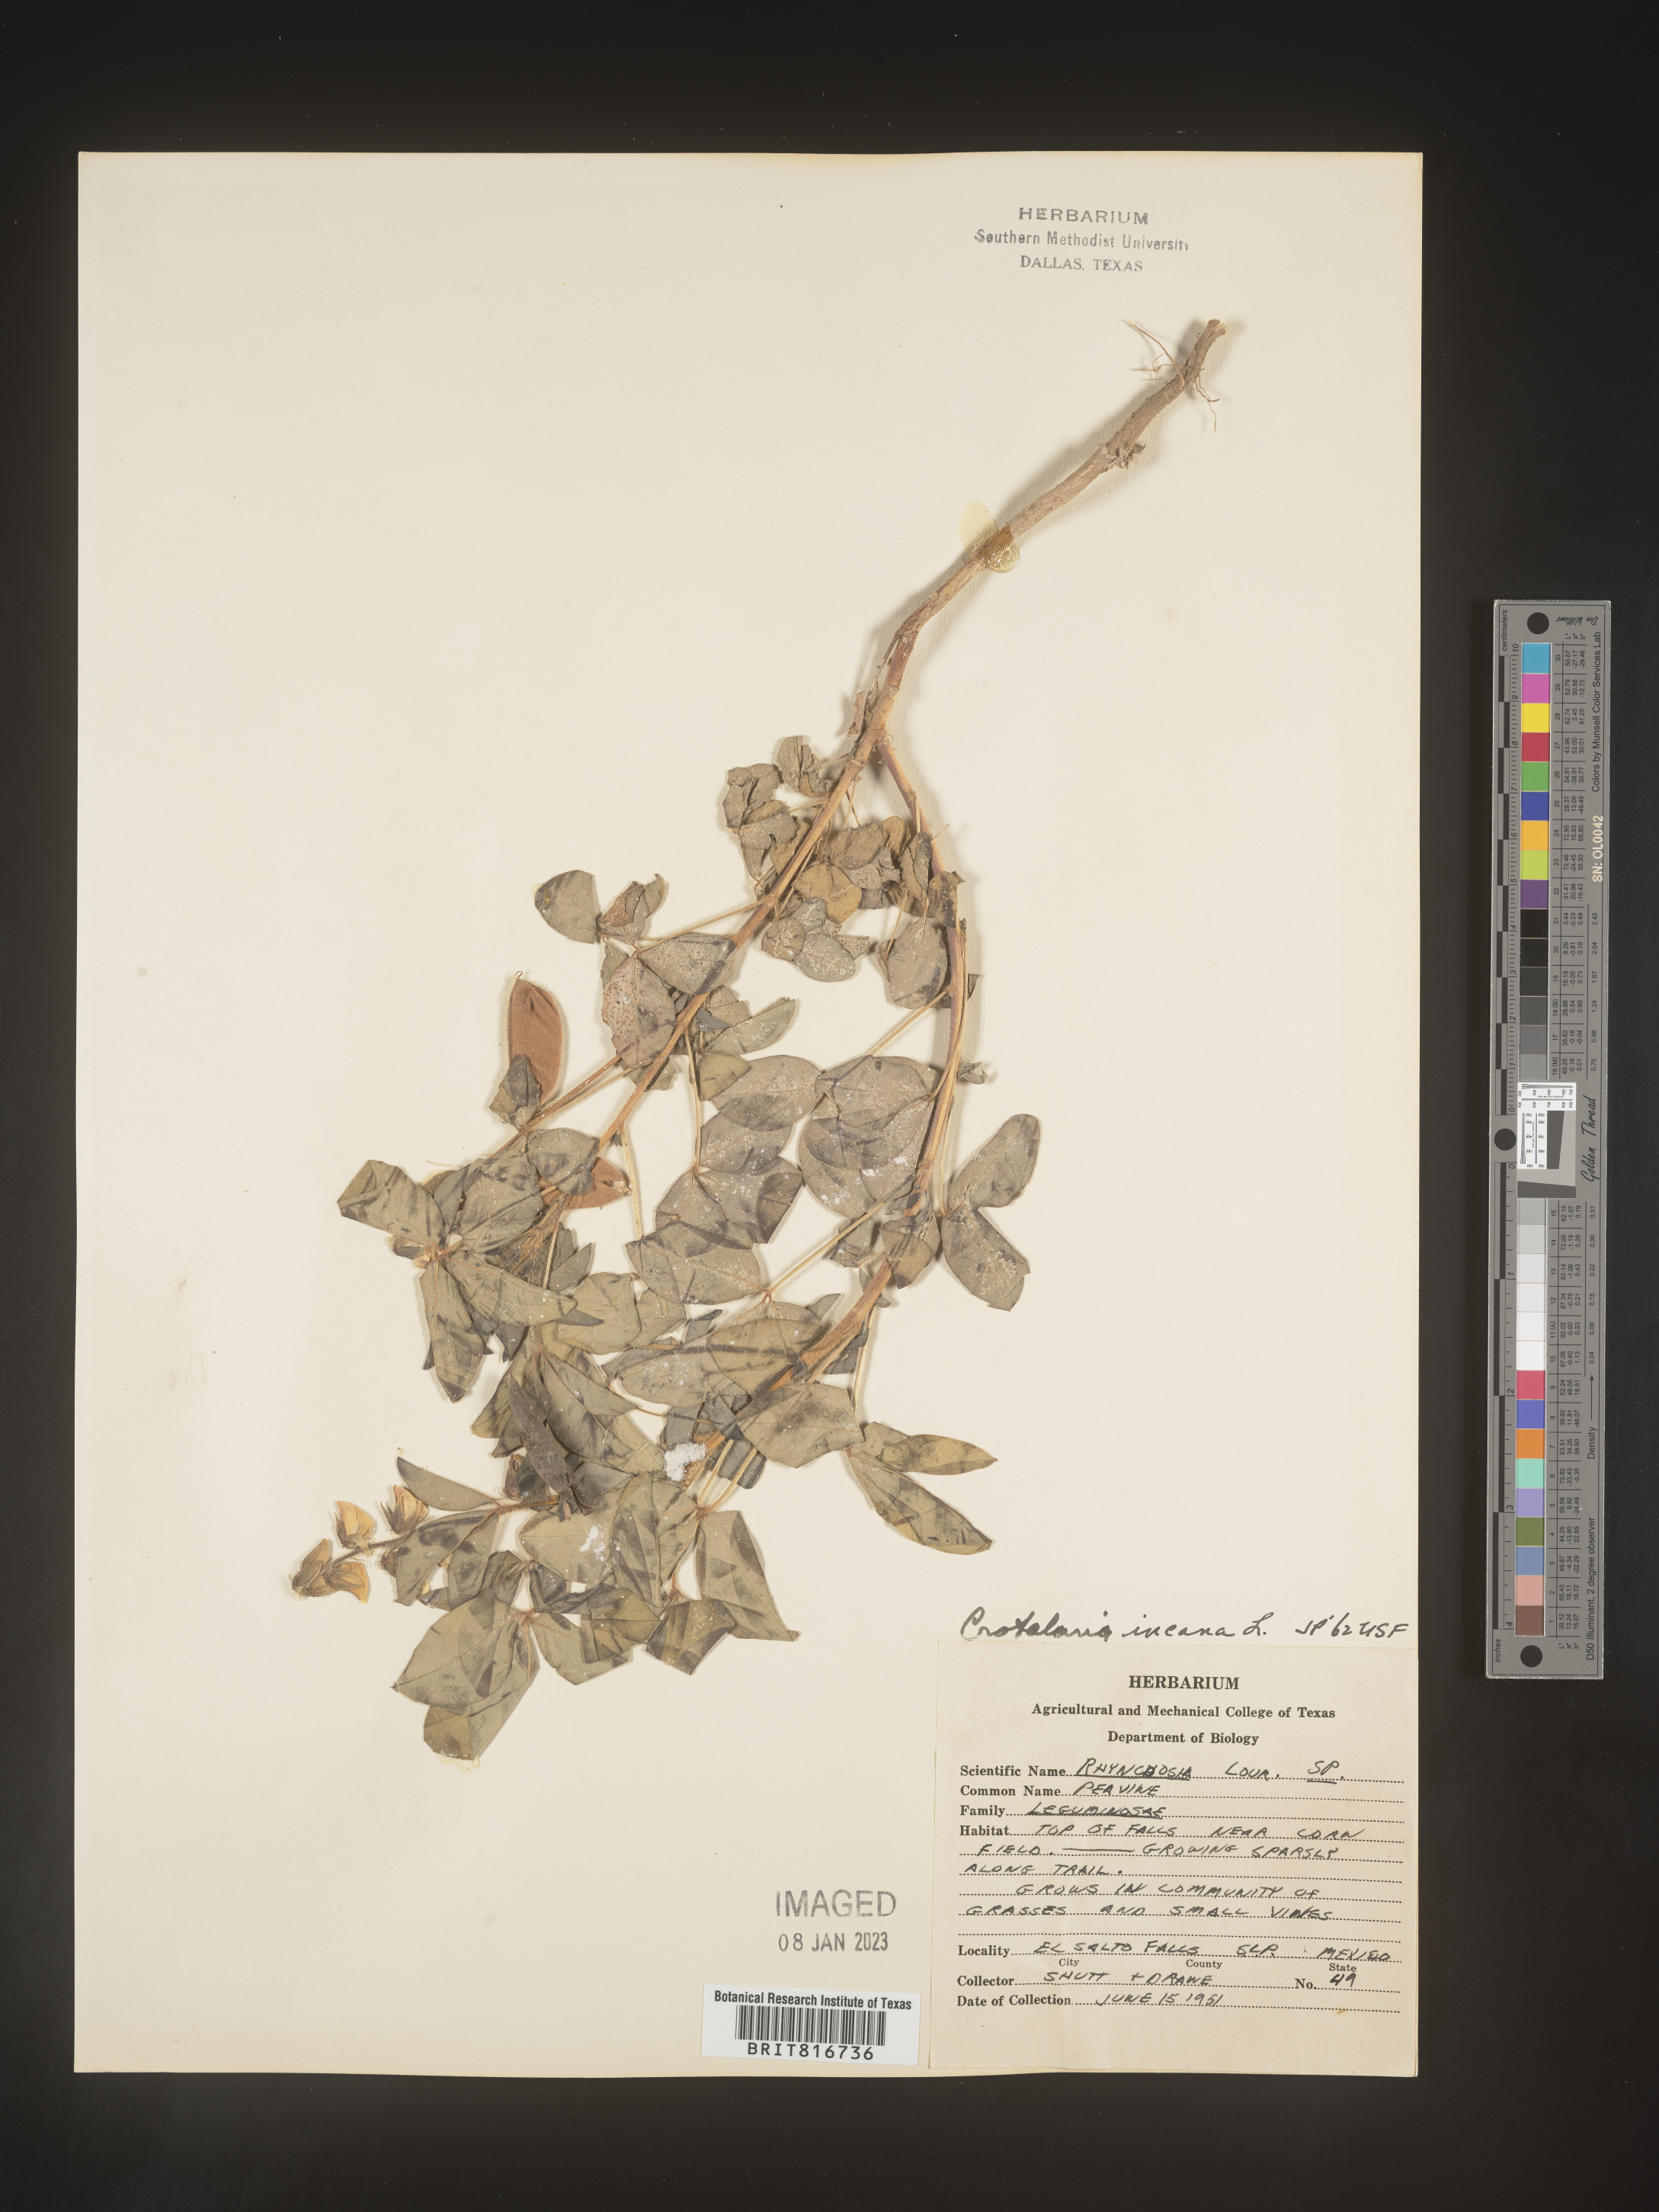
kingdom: Plantae
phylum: Tracheophyta
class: Magnoliopsida
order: Fabales
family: Fabaceae
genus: Crotalaria
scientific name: Crotalaria
